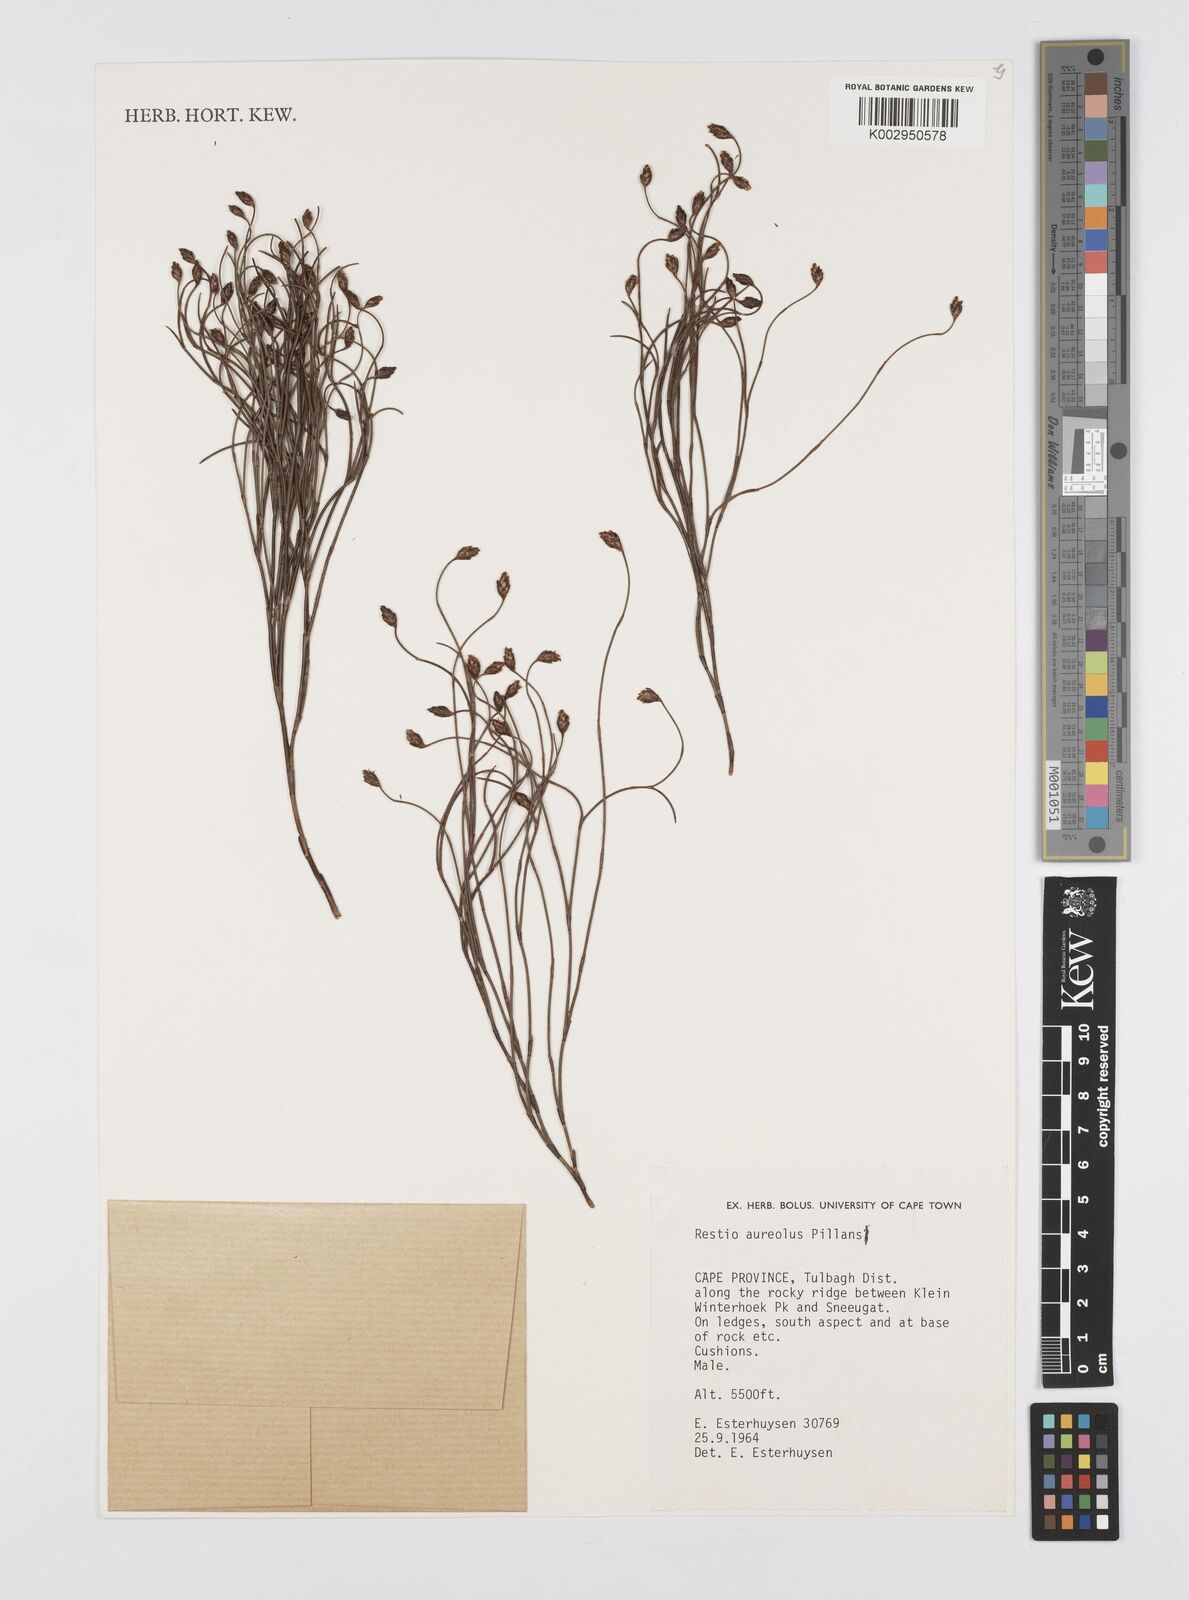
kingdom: Plantae
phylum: Tracheophyta
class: Liliopsida
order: Poales
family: Restionaceae
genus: Restio
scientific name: Restio aureolus
